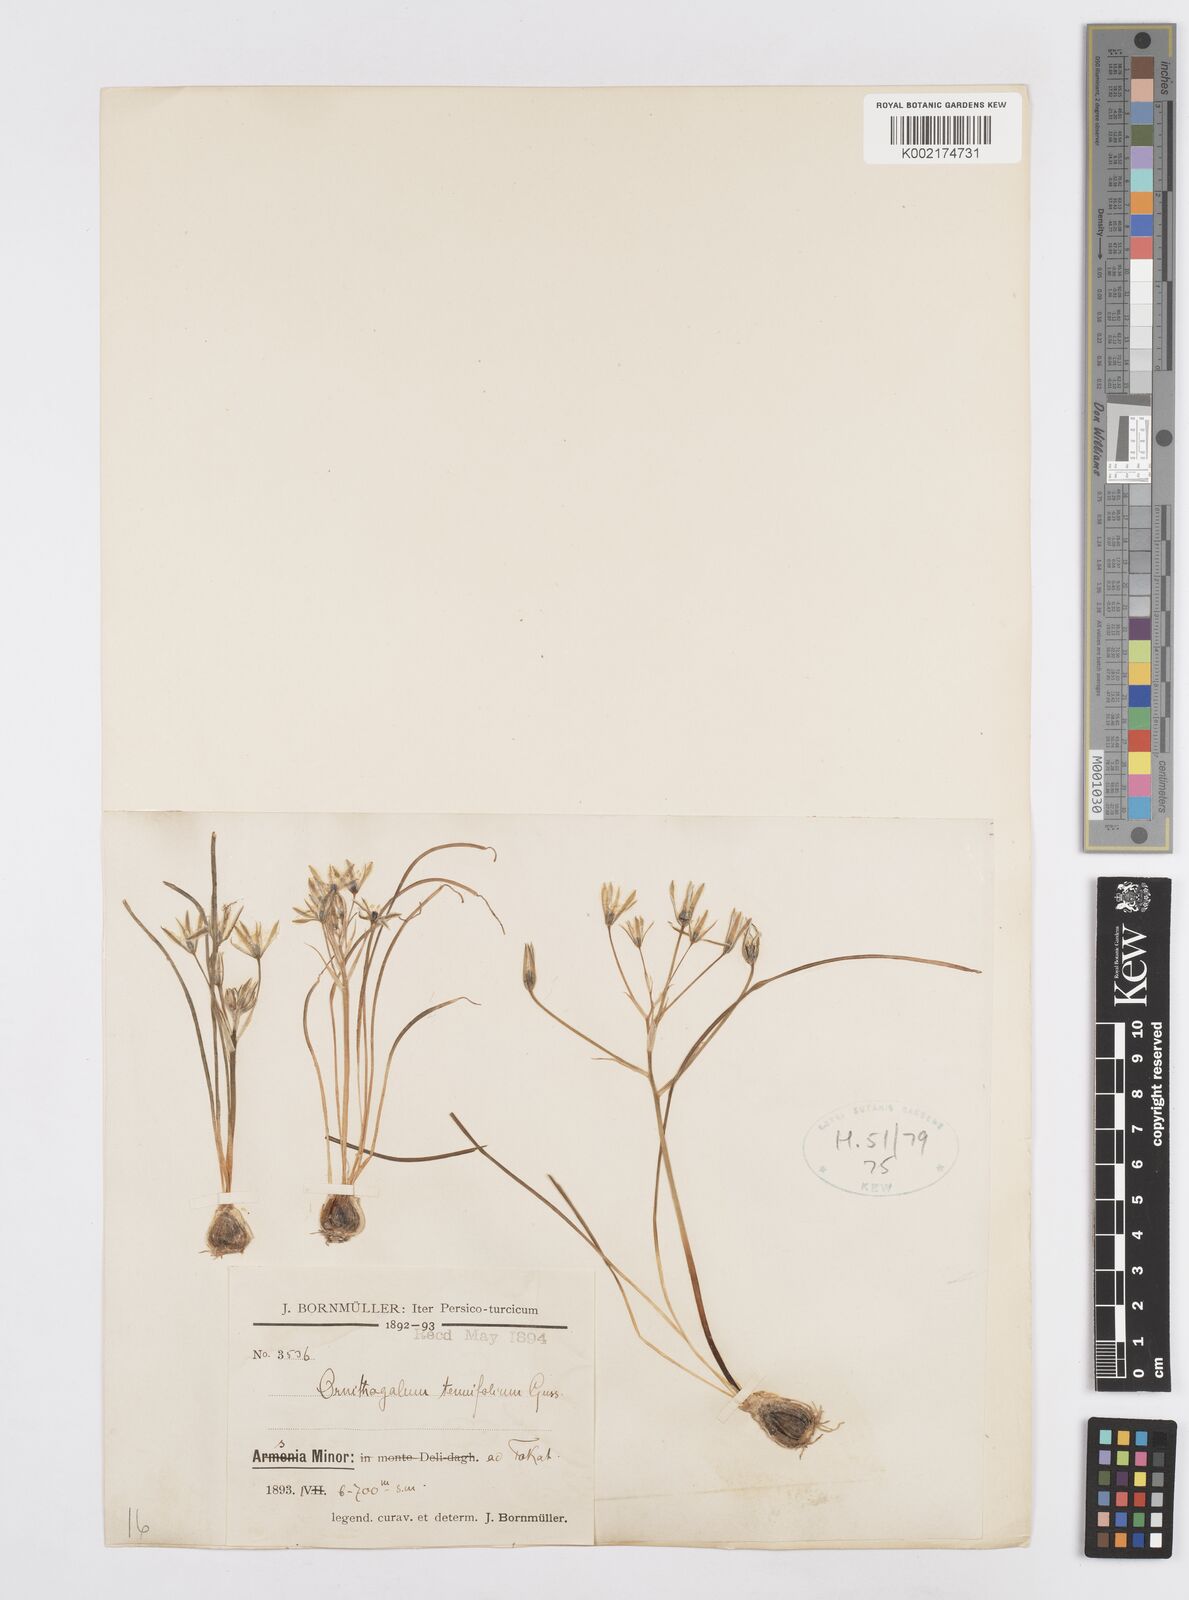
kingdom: Plantae
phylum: Tracheophyta
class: Liliopsida
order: Asparagales
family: Asparagaceae
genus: Ornithogalum
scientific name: Ornithogalum gussonei
